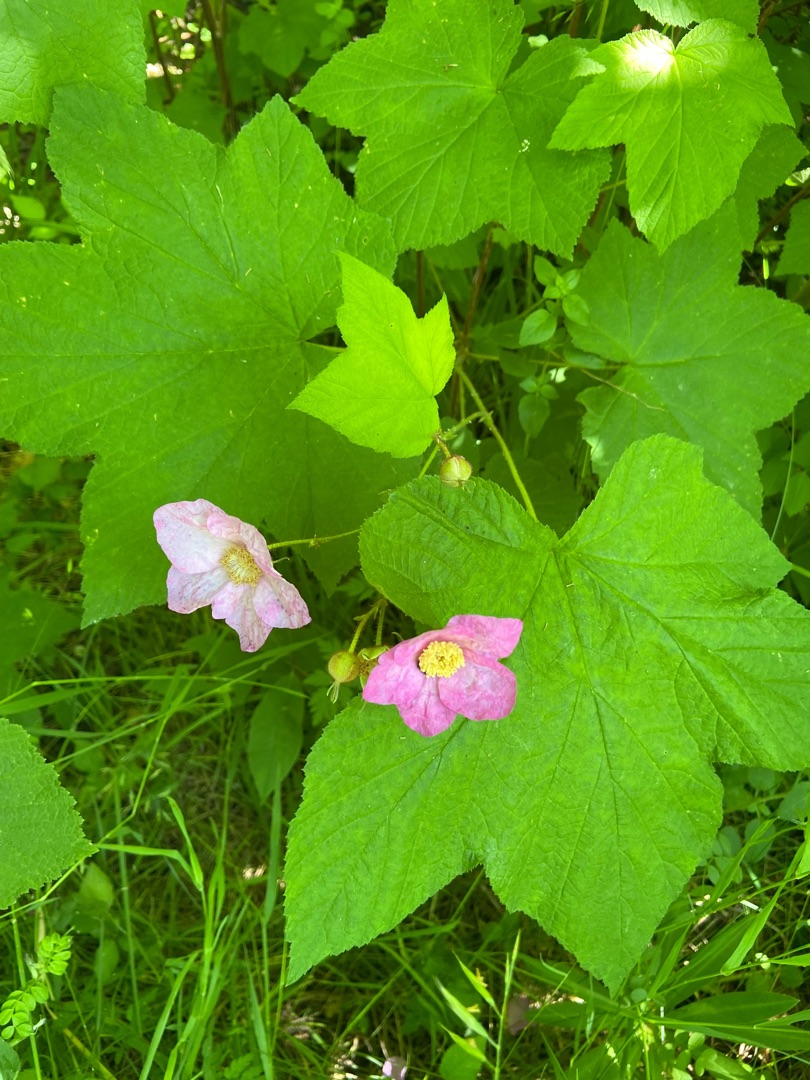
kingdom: Plantae
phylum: Tracheophyta
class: Magnoliopsida
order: Rosales
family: Rosaceae
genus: Rubus
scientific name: Rubus odoratus
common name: Rosen-brombær
